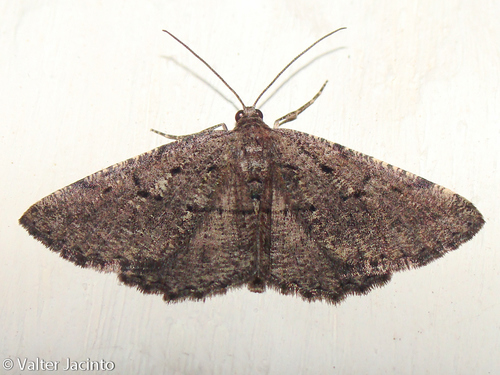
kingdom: Animalia
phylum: Arthropoda
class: Insecta
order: Lepidoptera
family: Geometridae
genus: Acanthovalva
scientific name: Acanthovalva inconspicuaria
